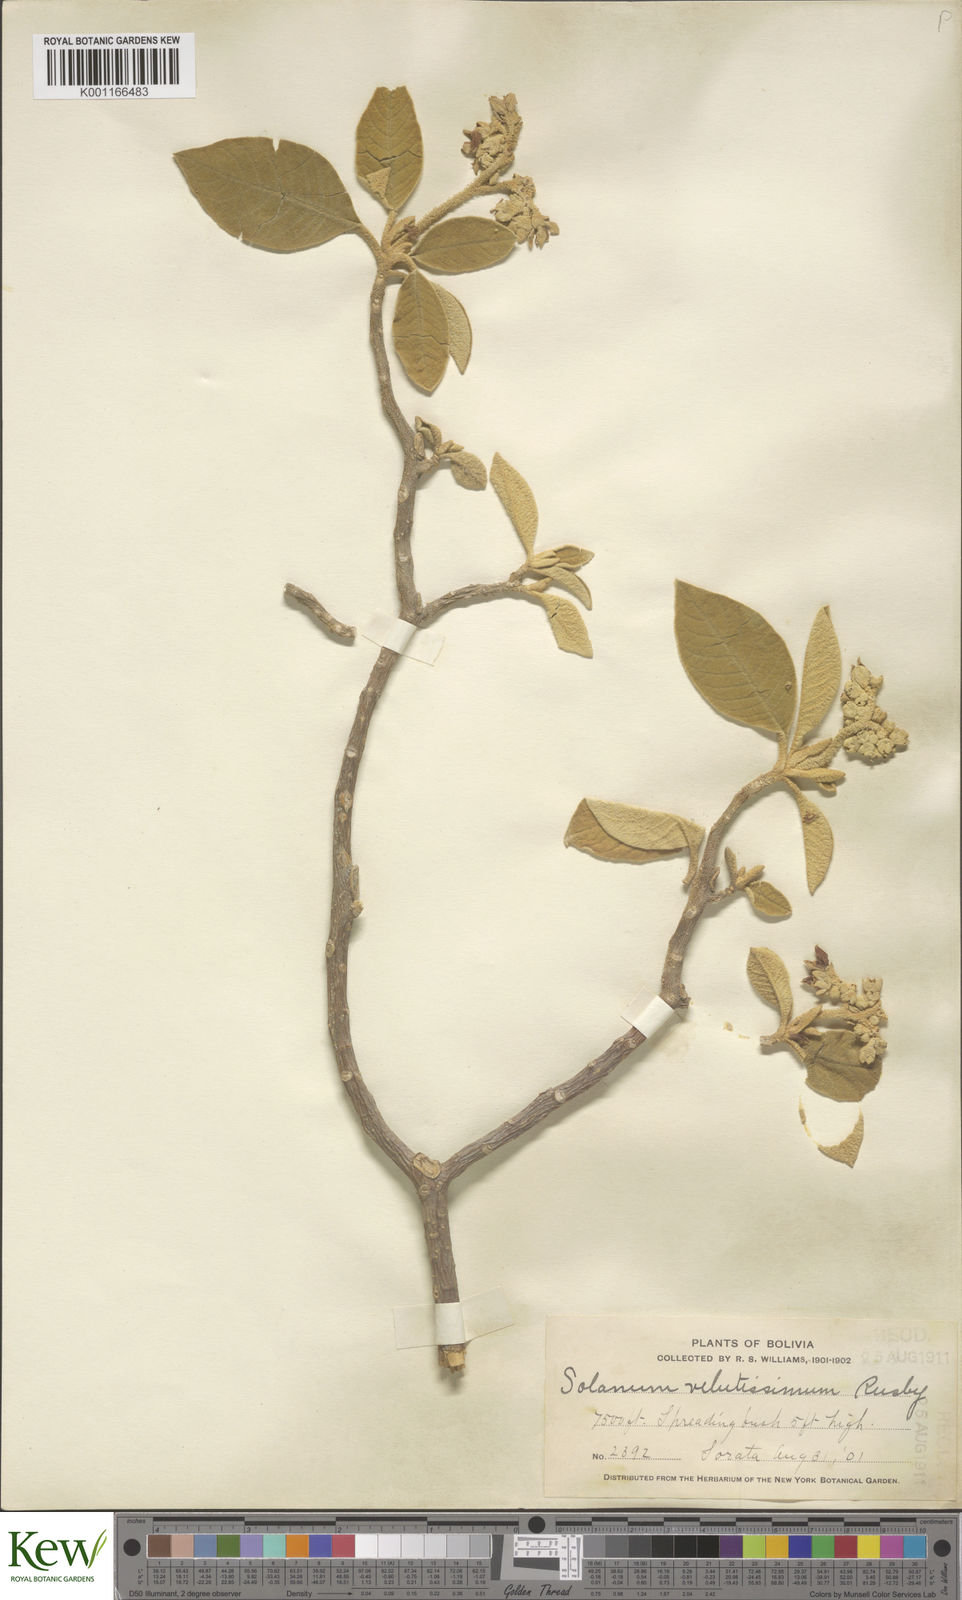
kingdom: Plantae
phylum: Tracheophyta
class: Magnoliopsida
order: Solanales
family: Solanaceae
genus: Solanum
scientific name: Solanum velutissimum
